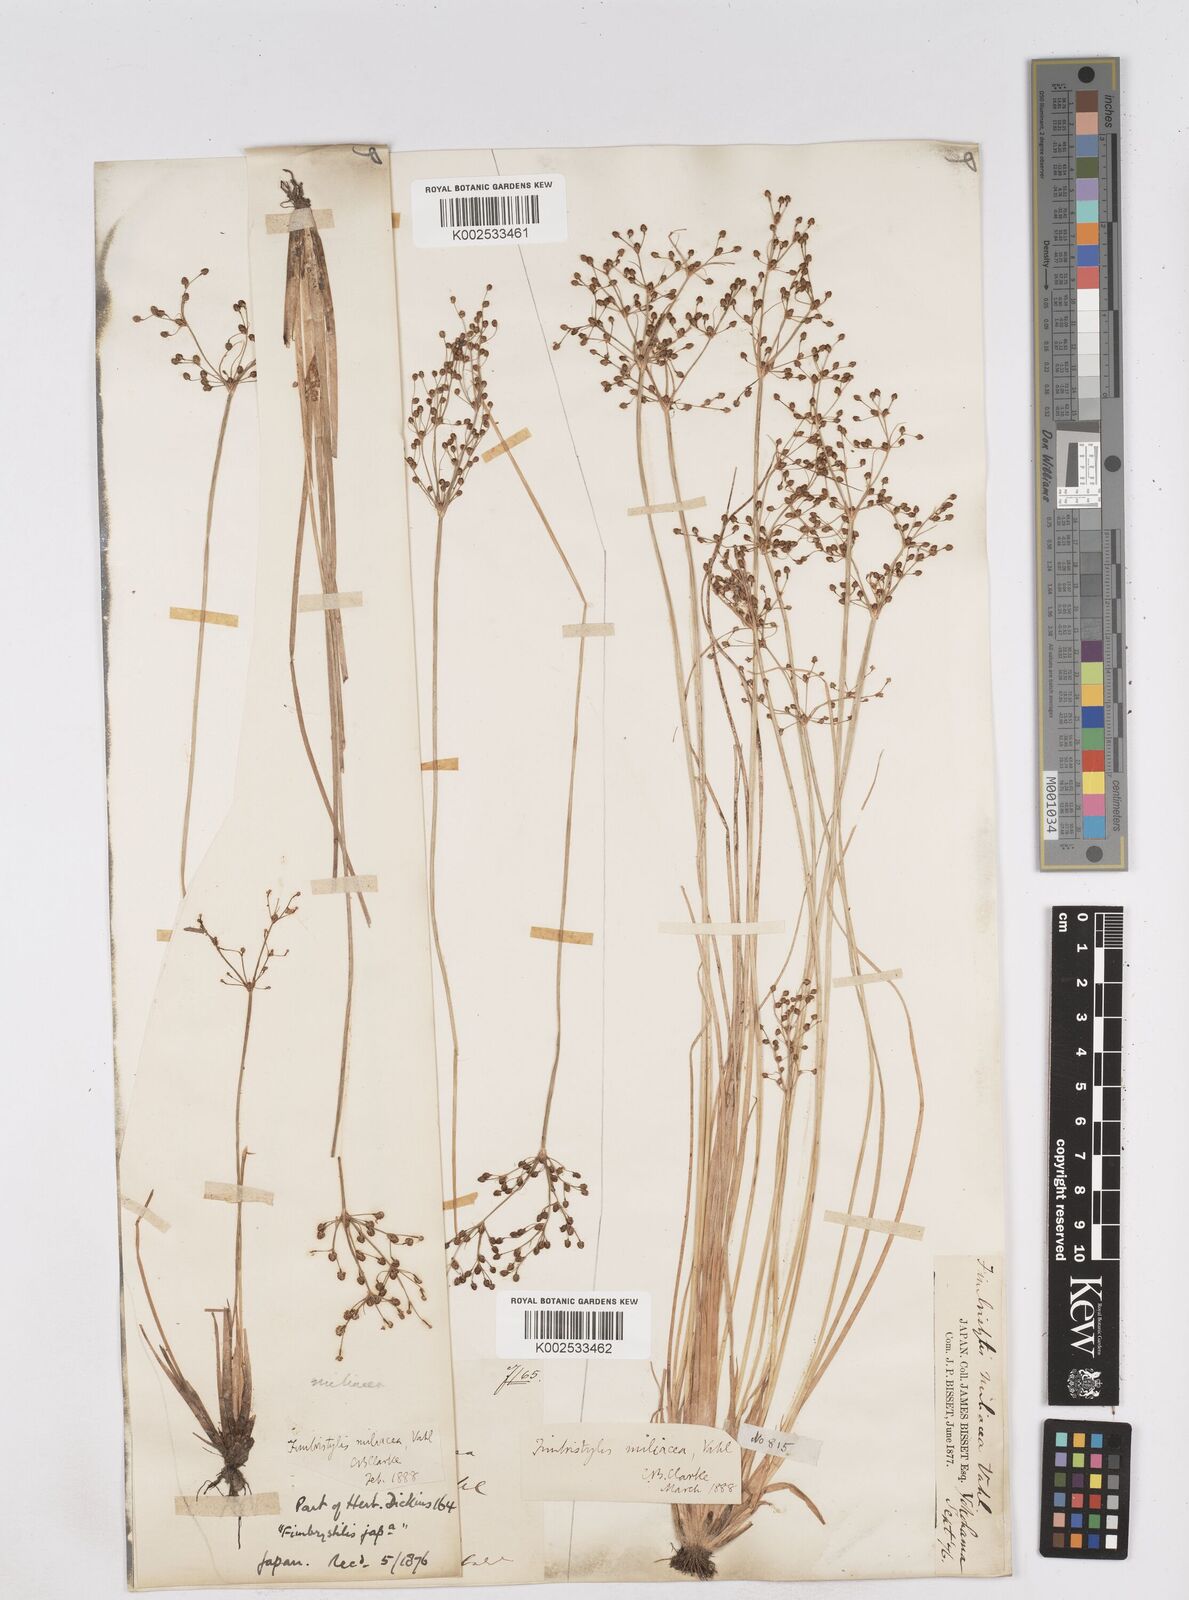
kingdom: Plantae
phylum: Tracheophyta
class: Liliopsida
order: Poales
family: Cyperaceae
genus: Fimbristylis
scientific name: Fimbristylis quinquangularis
